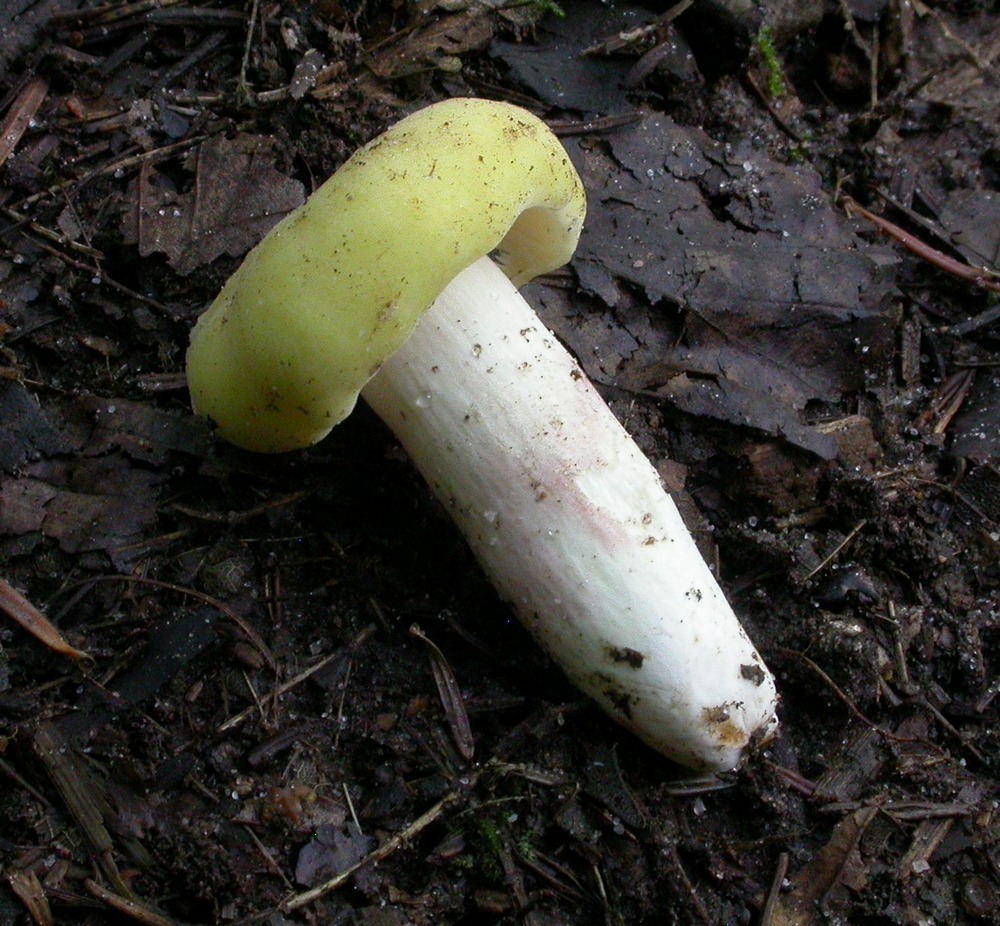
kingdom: Fungi
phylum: Basidiomycota
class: Agaricomycetes
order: Russulales
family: Russulaceae
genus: Russula
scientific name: Russula violeipes
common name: ferskengul skørhat
